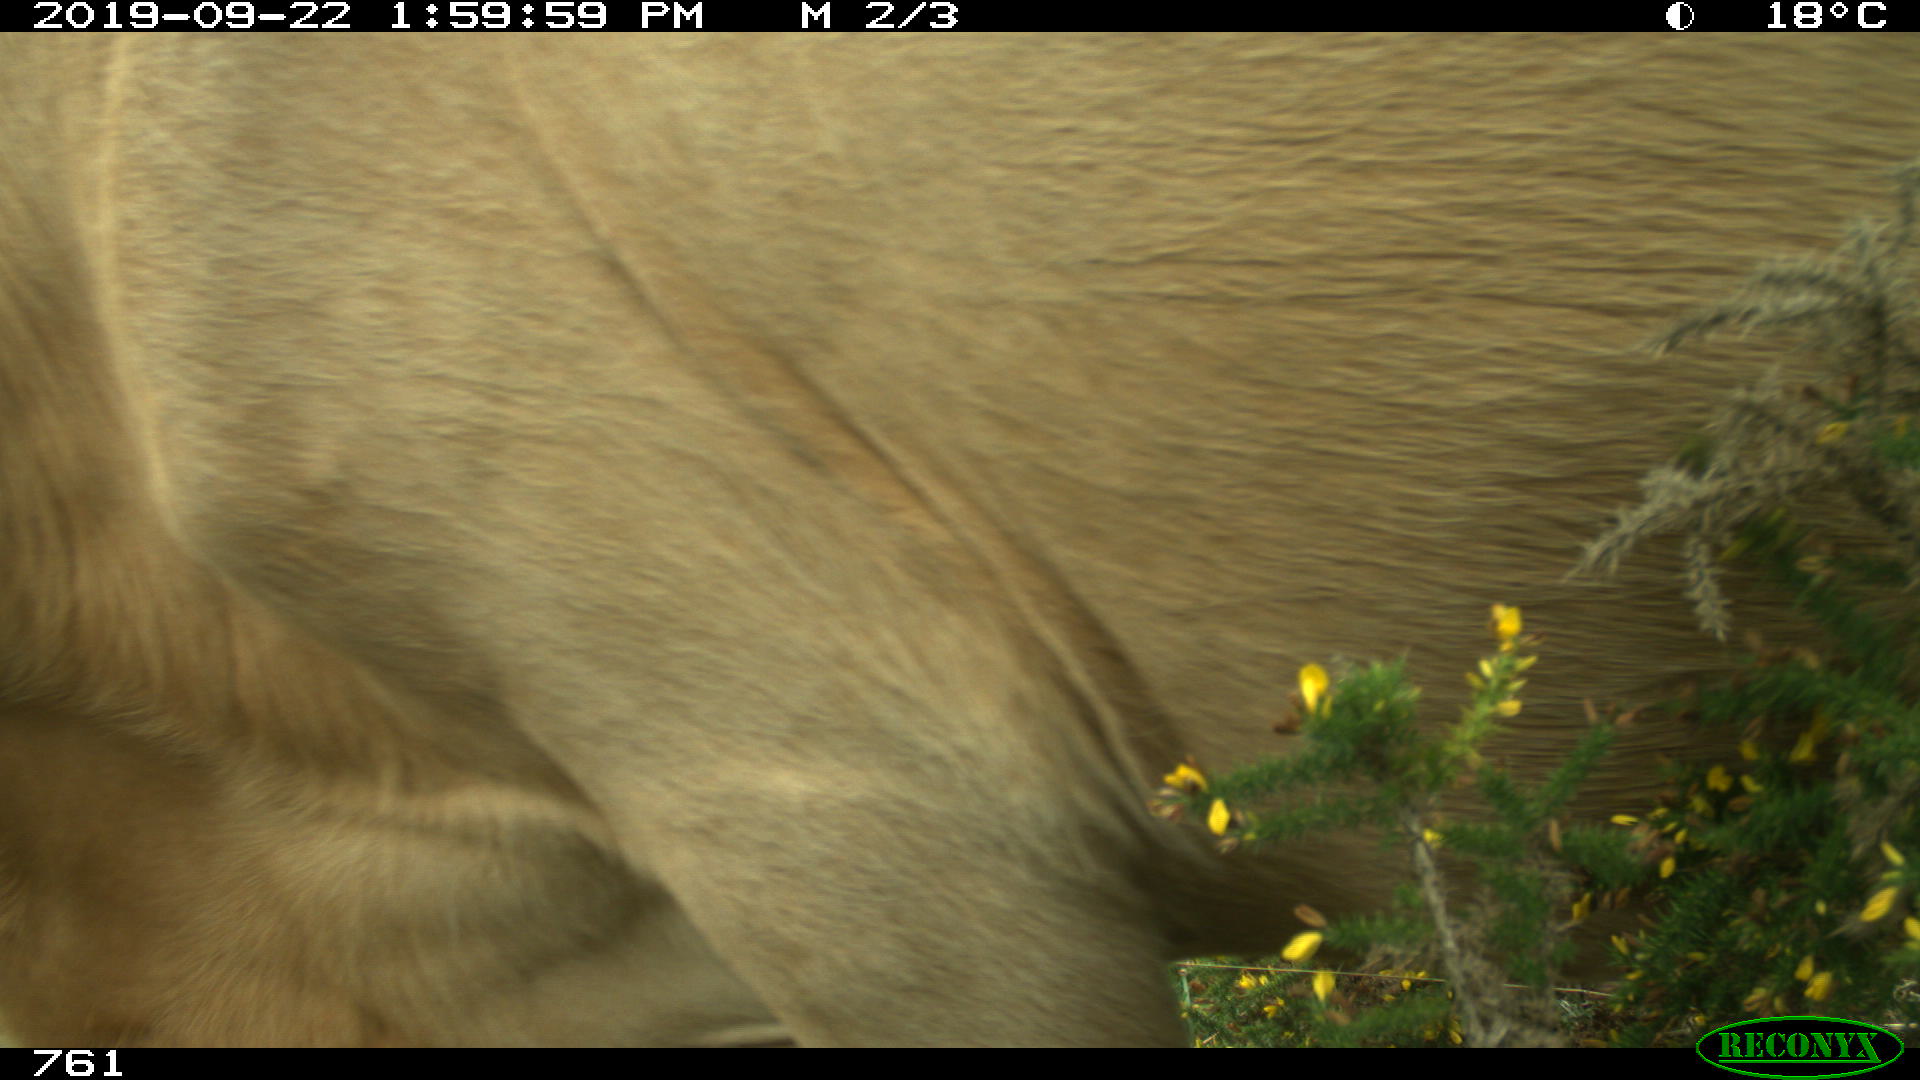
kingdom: Animalia
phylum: Chordata
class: Mammalia
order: Artiodactyla
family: Bovidae
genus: Bos
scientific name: Bos taurus
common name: Domesticated cattle
